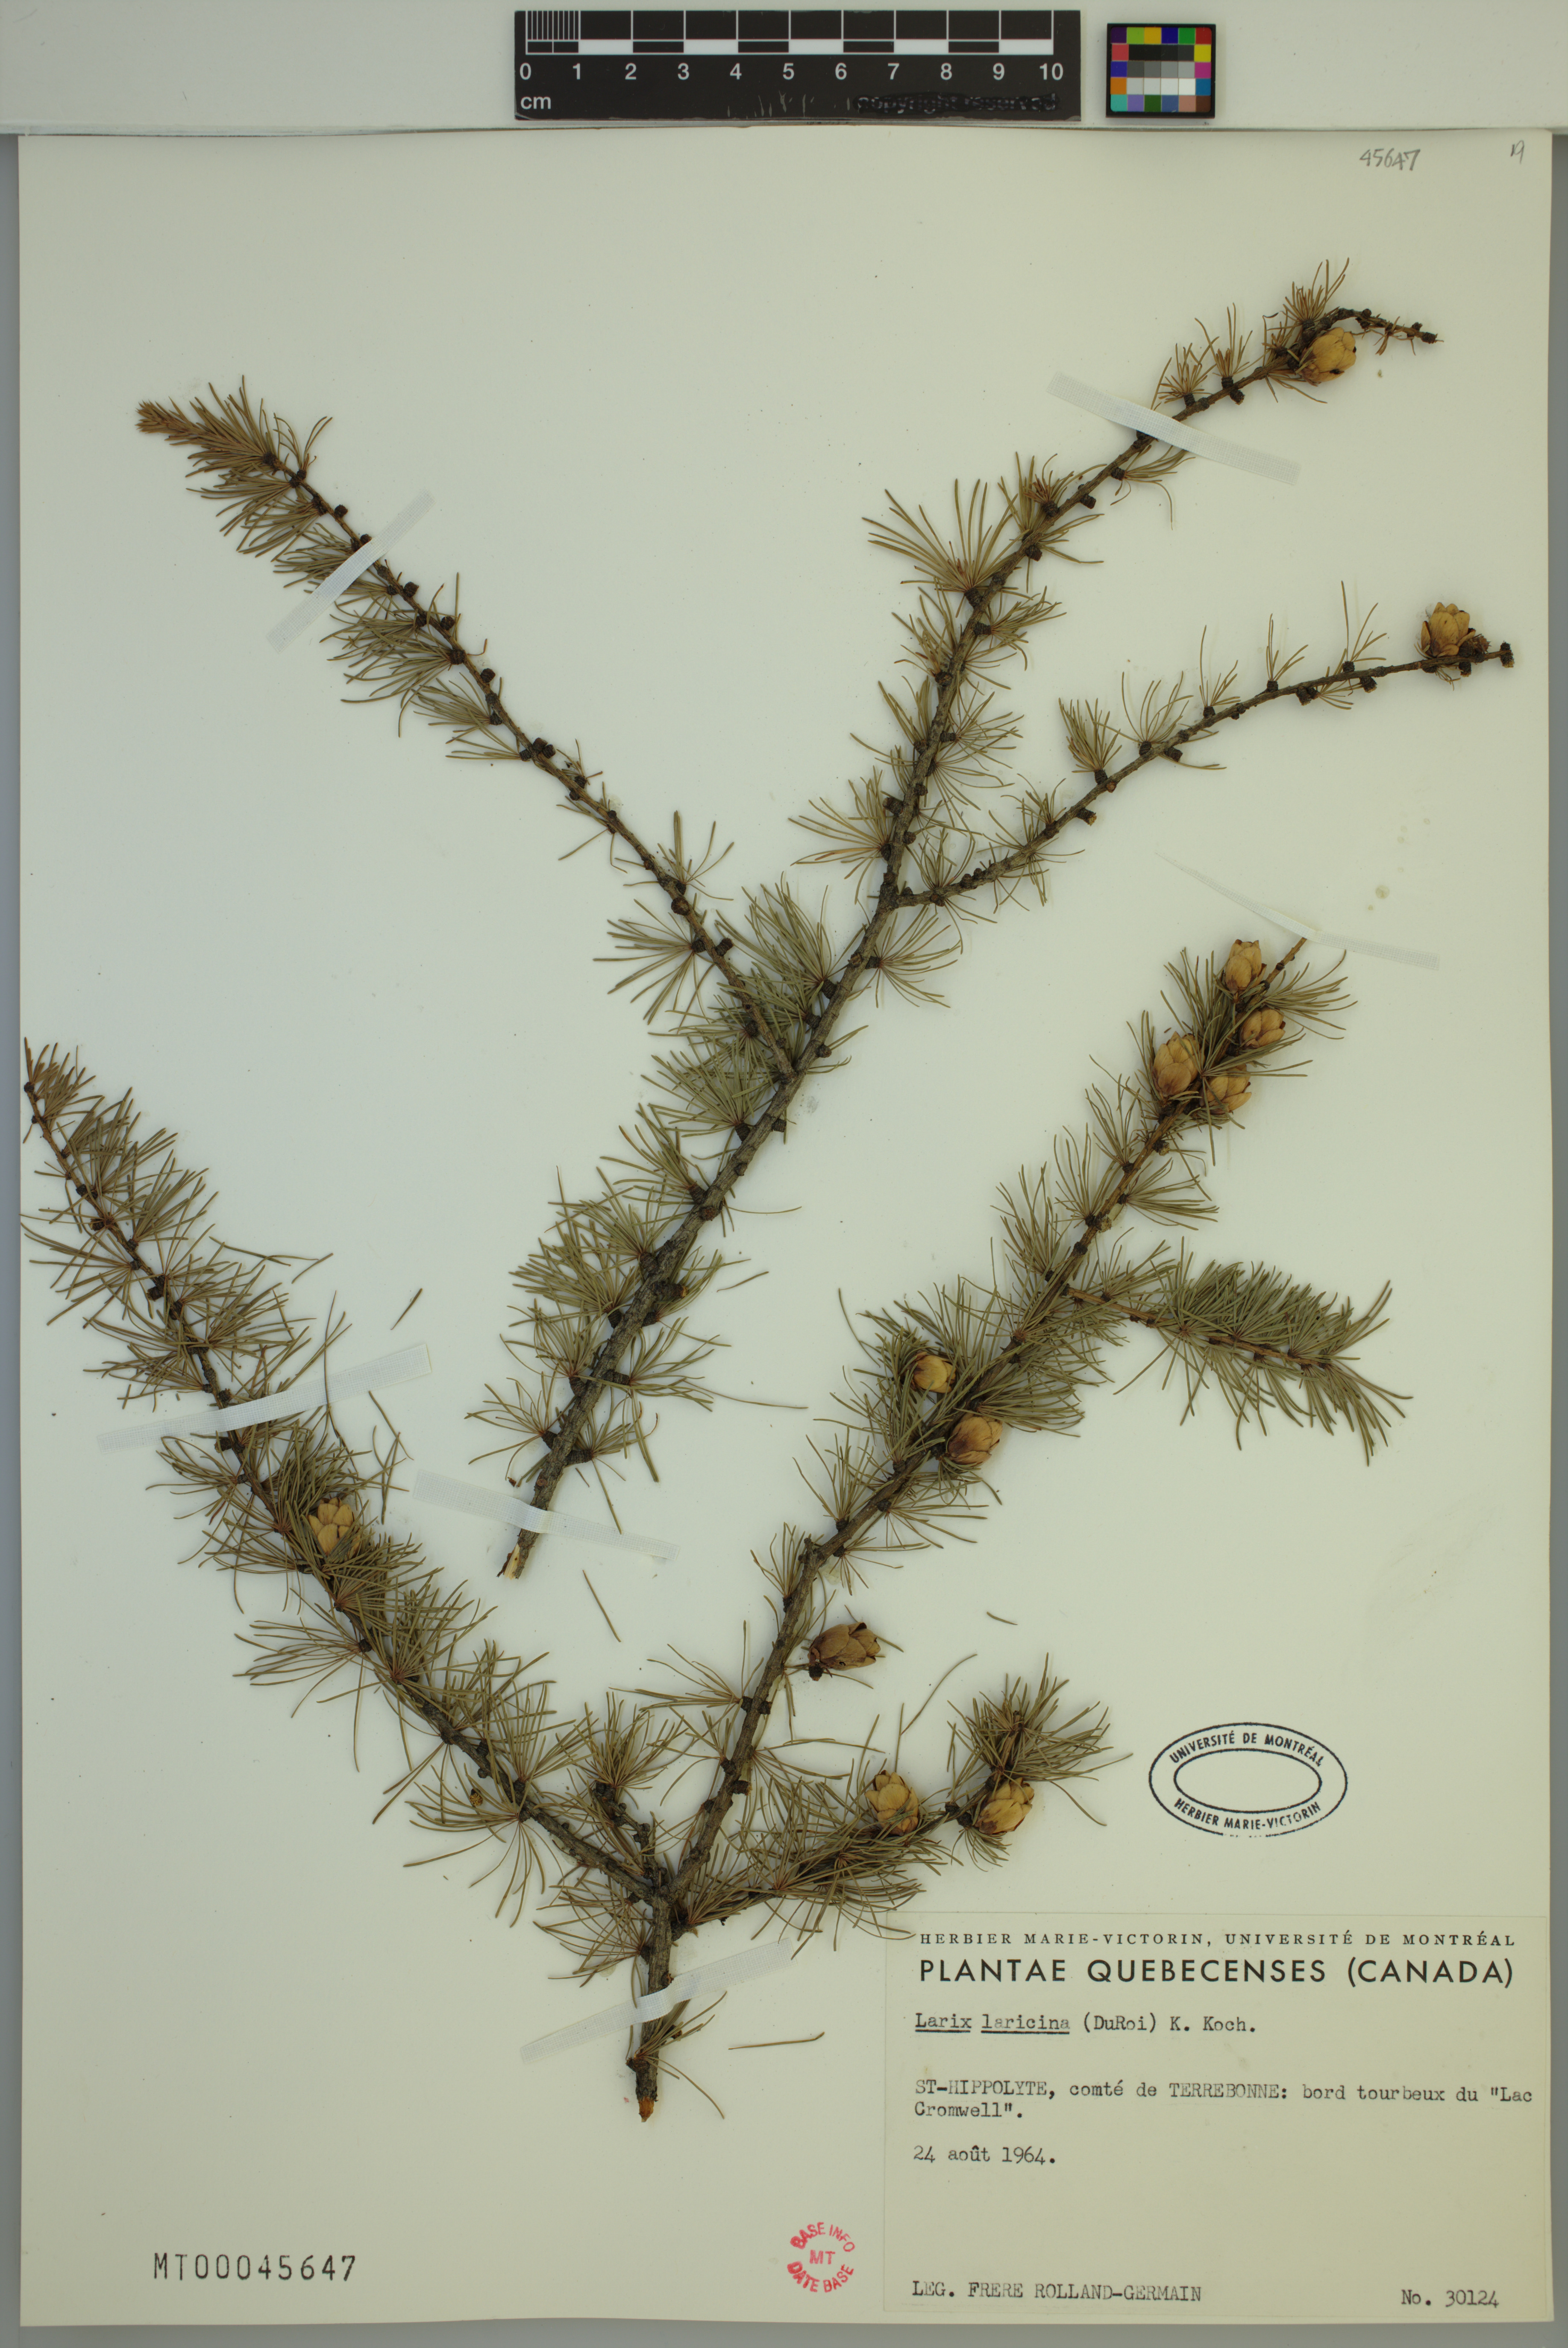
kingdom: Plantae
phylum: Tracheophyta
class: Pinopsida
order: Pinales
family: Pinaceae
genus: Larix
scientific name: Larix laricina
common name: American larch
